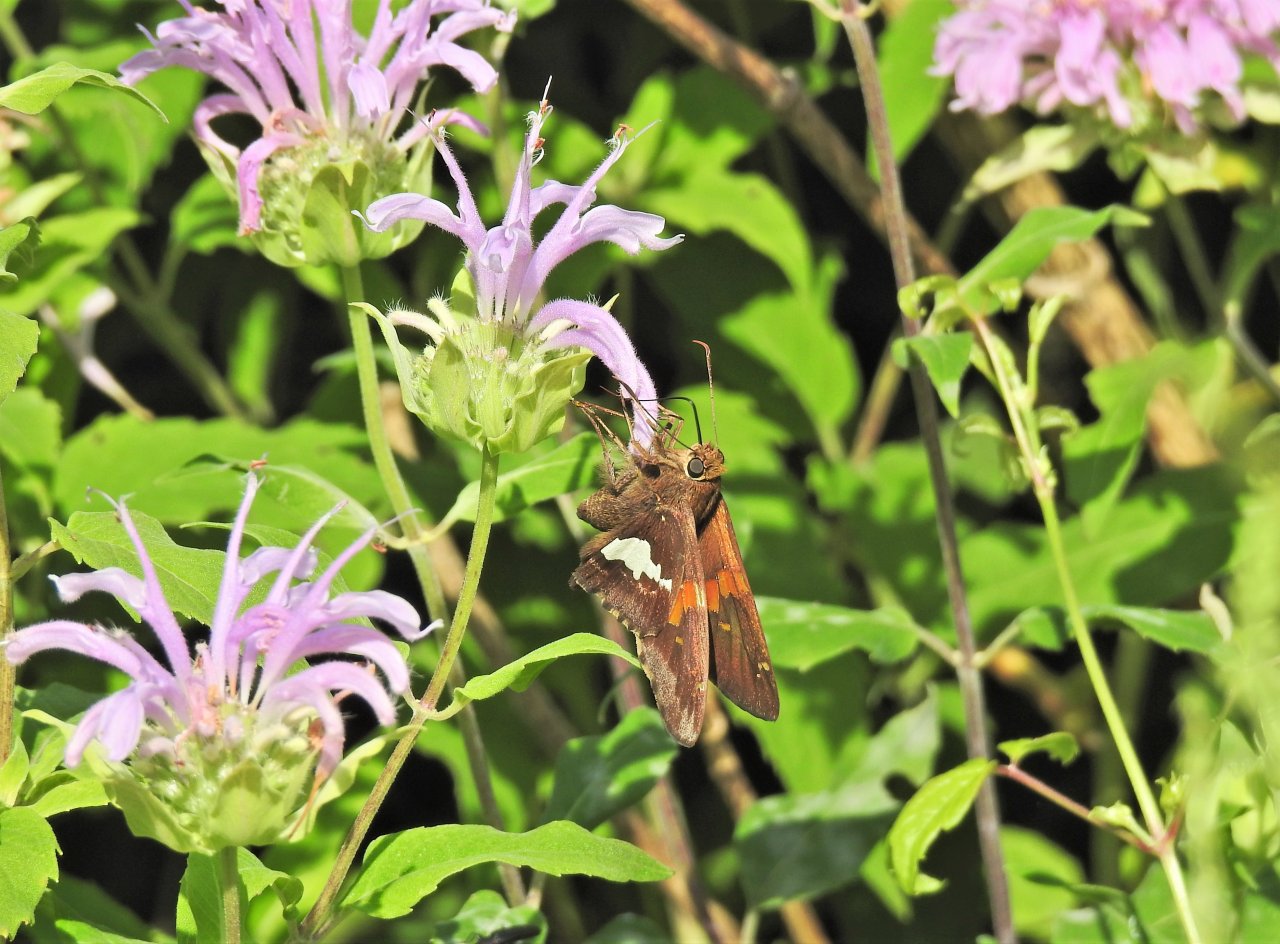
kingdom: Animalia
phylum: Arthropoda
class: Insecta
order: Lepidoptera
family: Hesperiidae
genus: Epargyreus
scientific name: Epargyreus clarus
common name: Silver-spotted Skipper
